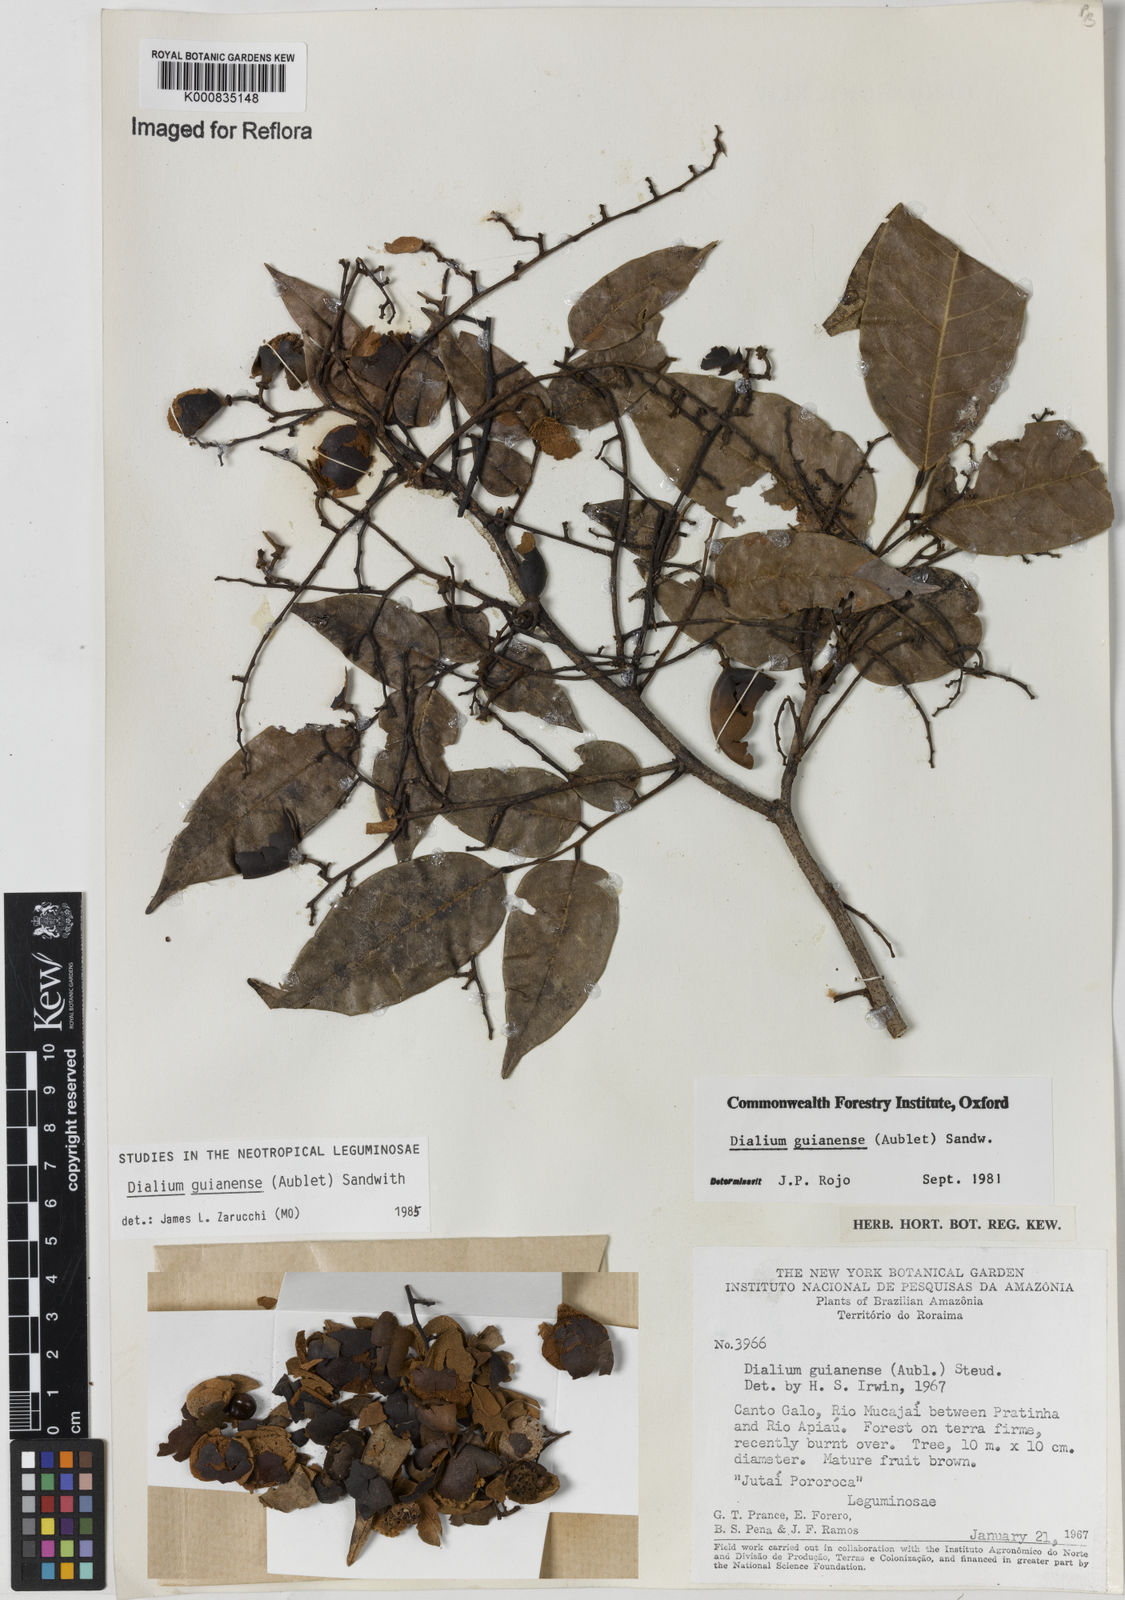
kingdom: Plantae
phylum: Tracheophyta
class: Magnoliopsida
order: Fabales
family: Fabaceae
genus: Dialium
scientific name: Dialium guianense
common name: Ironwood
